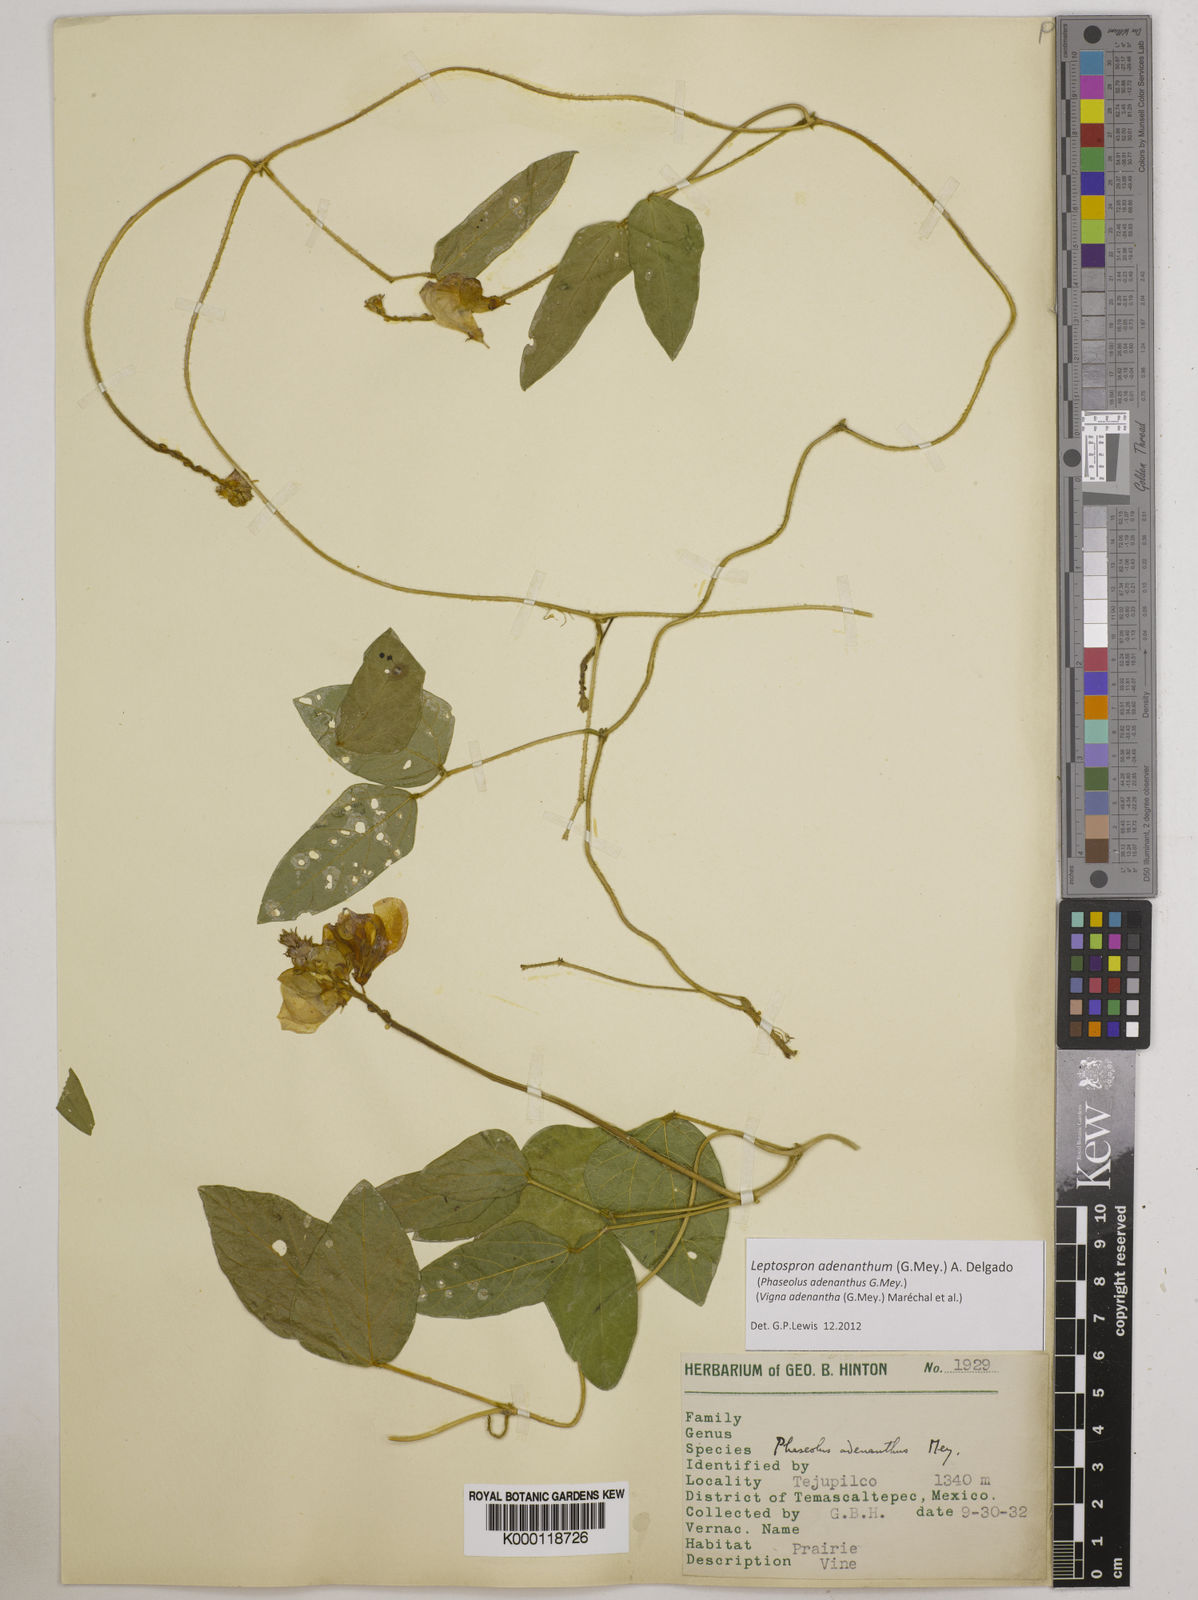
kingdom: Plantae
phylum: Tracheophyta
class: Magnoliopsida
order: Fabales
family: Fabaceae
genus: Leptospron
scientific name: Leptospron adenanthum
